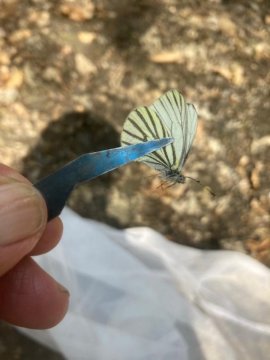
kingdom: Animalia
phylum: Arthropoda
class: Insecta
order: Lepidoptera
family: Pieridae
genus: Pieris
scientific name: Pieris oleracea
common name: Mustard White
